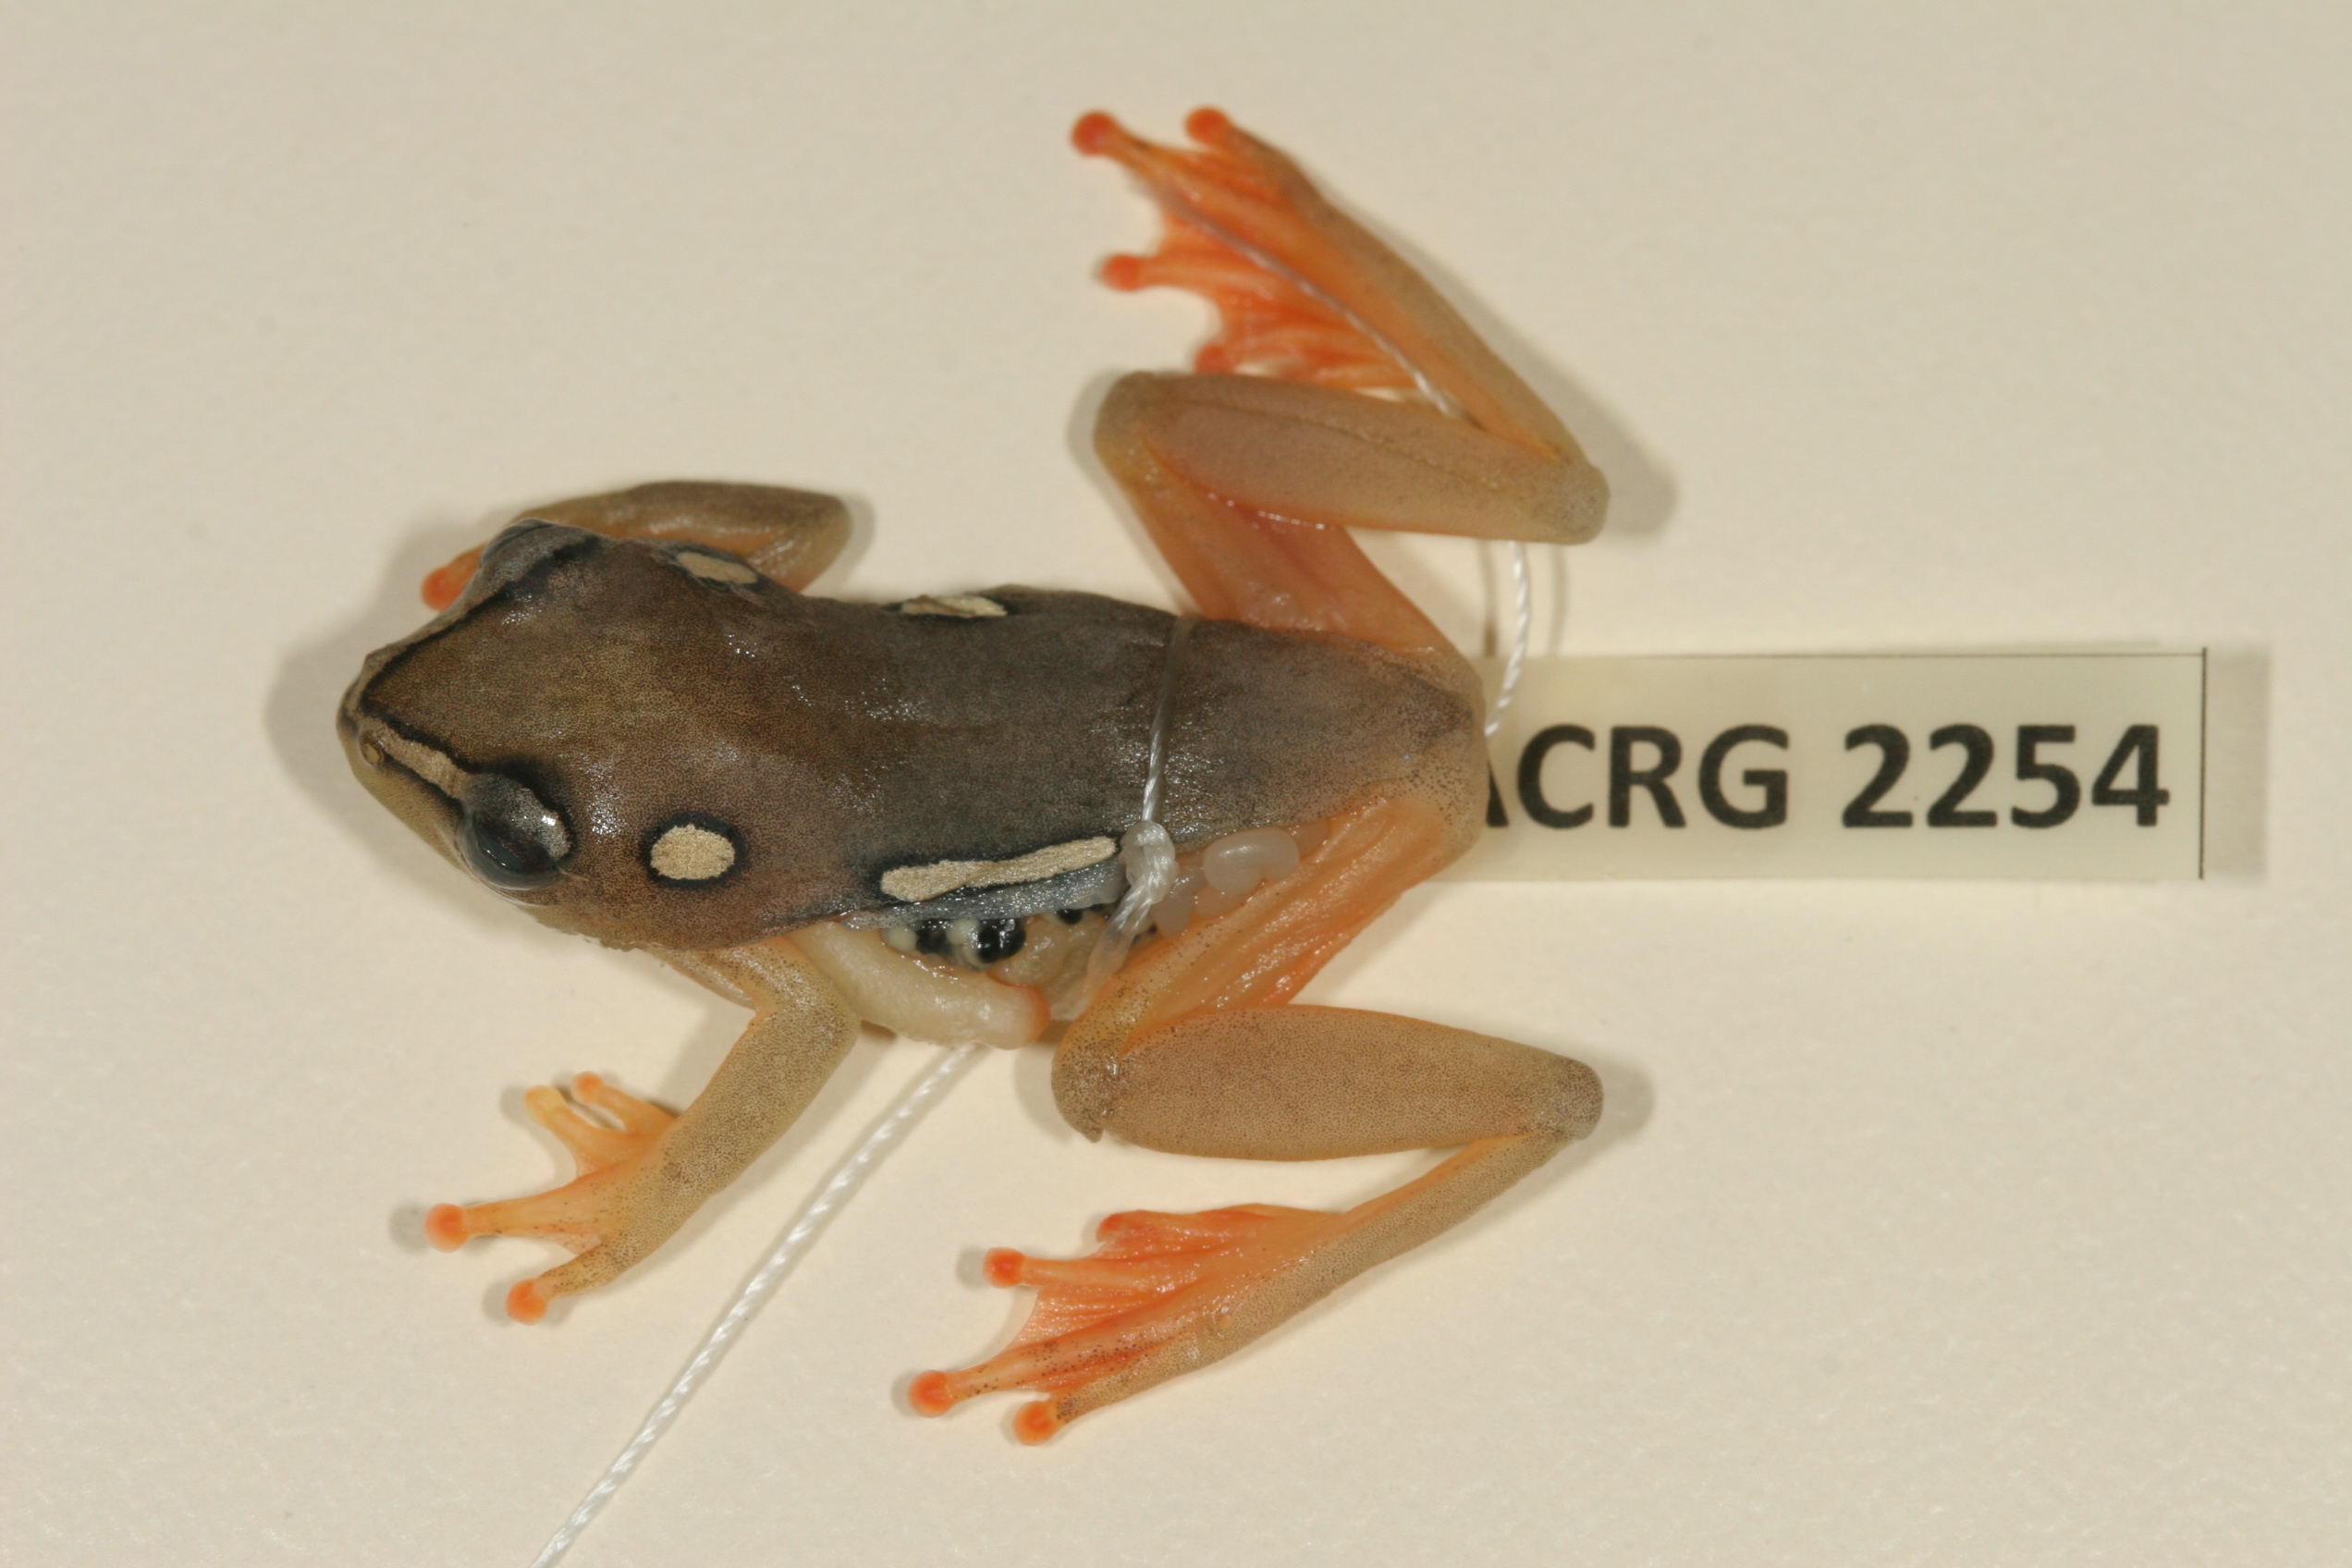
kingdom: Animalia
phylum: Chordata
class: Amphibia
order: Anura
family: Hyperoliidae
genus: Hyperolius
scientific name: Hyperolius argus
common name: Argus reed frog
